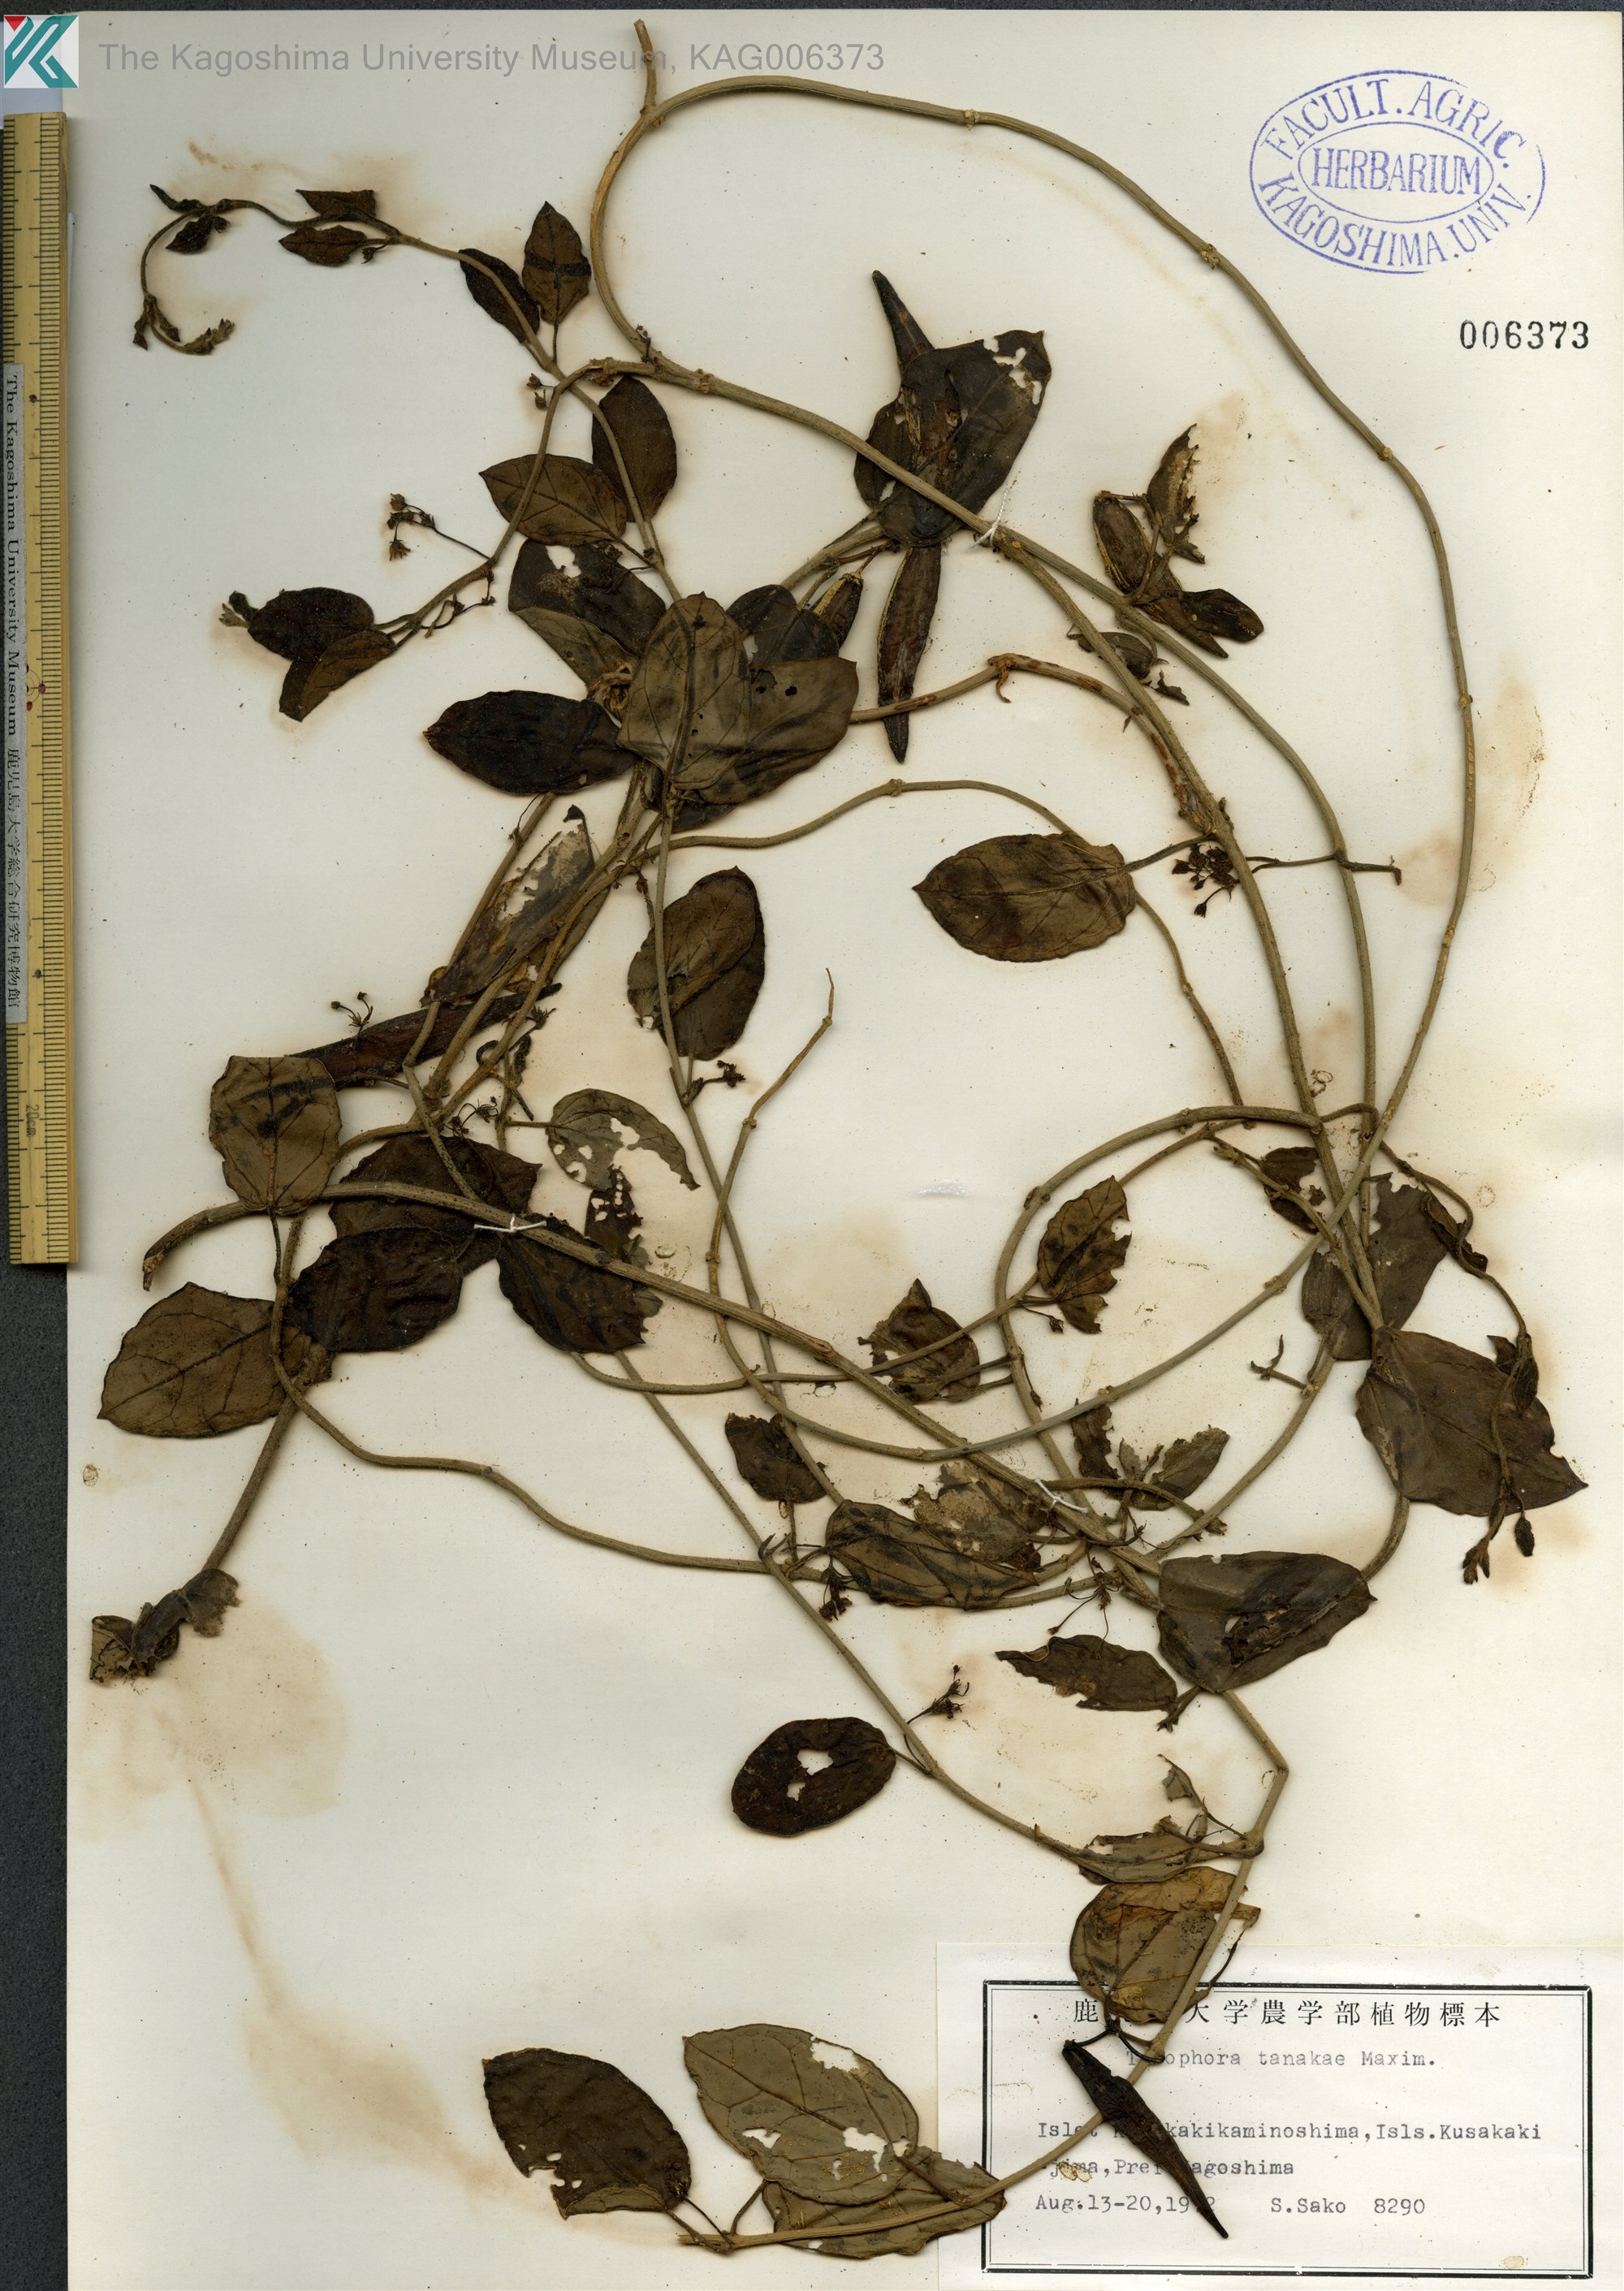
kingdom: Plantae
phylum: Tracheophyta
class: Magnoliopsida
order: Gentianales
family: Apocynaceae
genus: Vincetoxicum
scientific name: Vincetoxicum Tylophora tanakae
